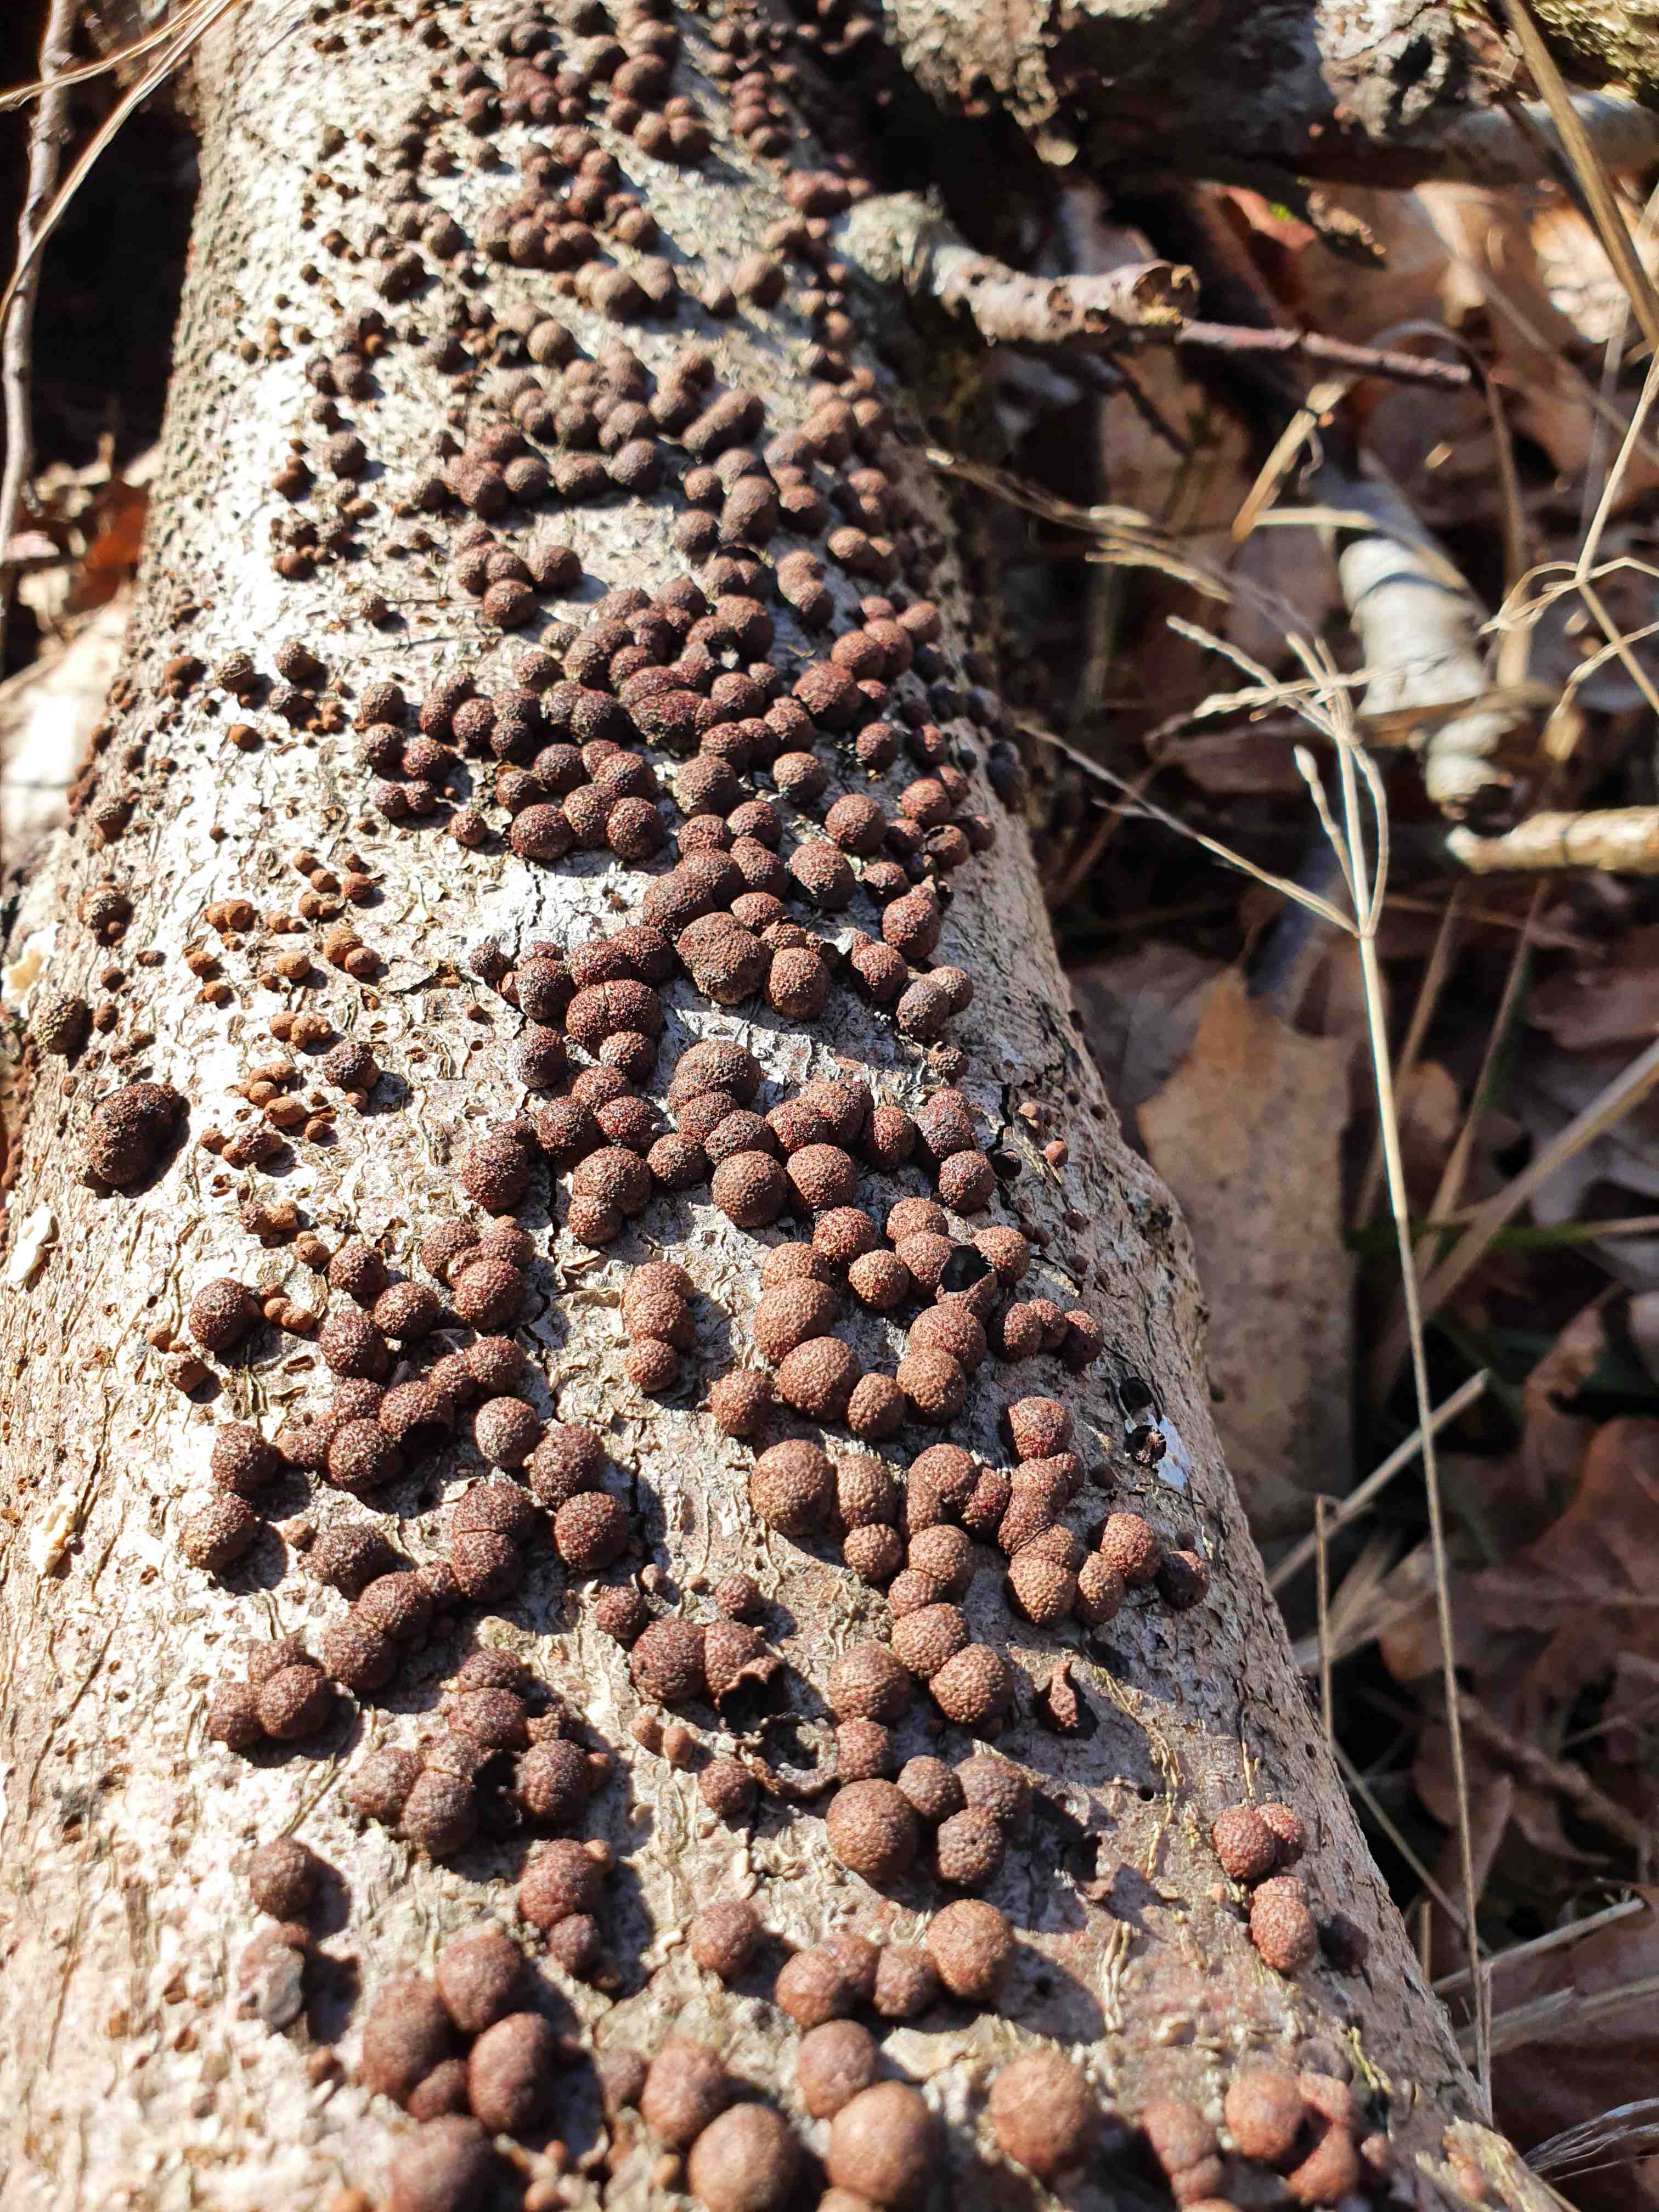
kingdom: Fungi
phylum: Ascomycota
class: Sordariomycetes
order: Xylariales
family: Hypoxylaceae
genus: Hypoxylon
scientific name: Hypoxylon fragiforme
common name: kuljordbær
